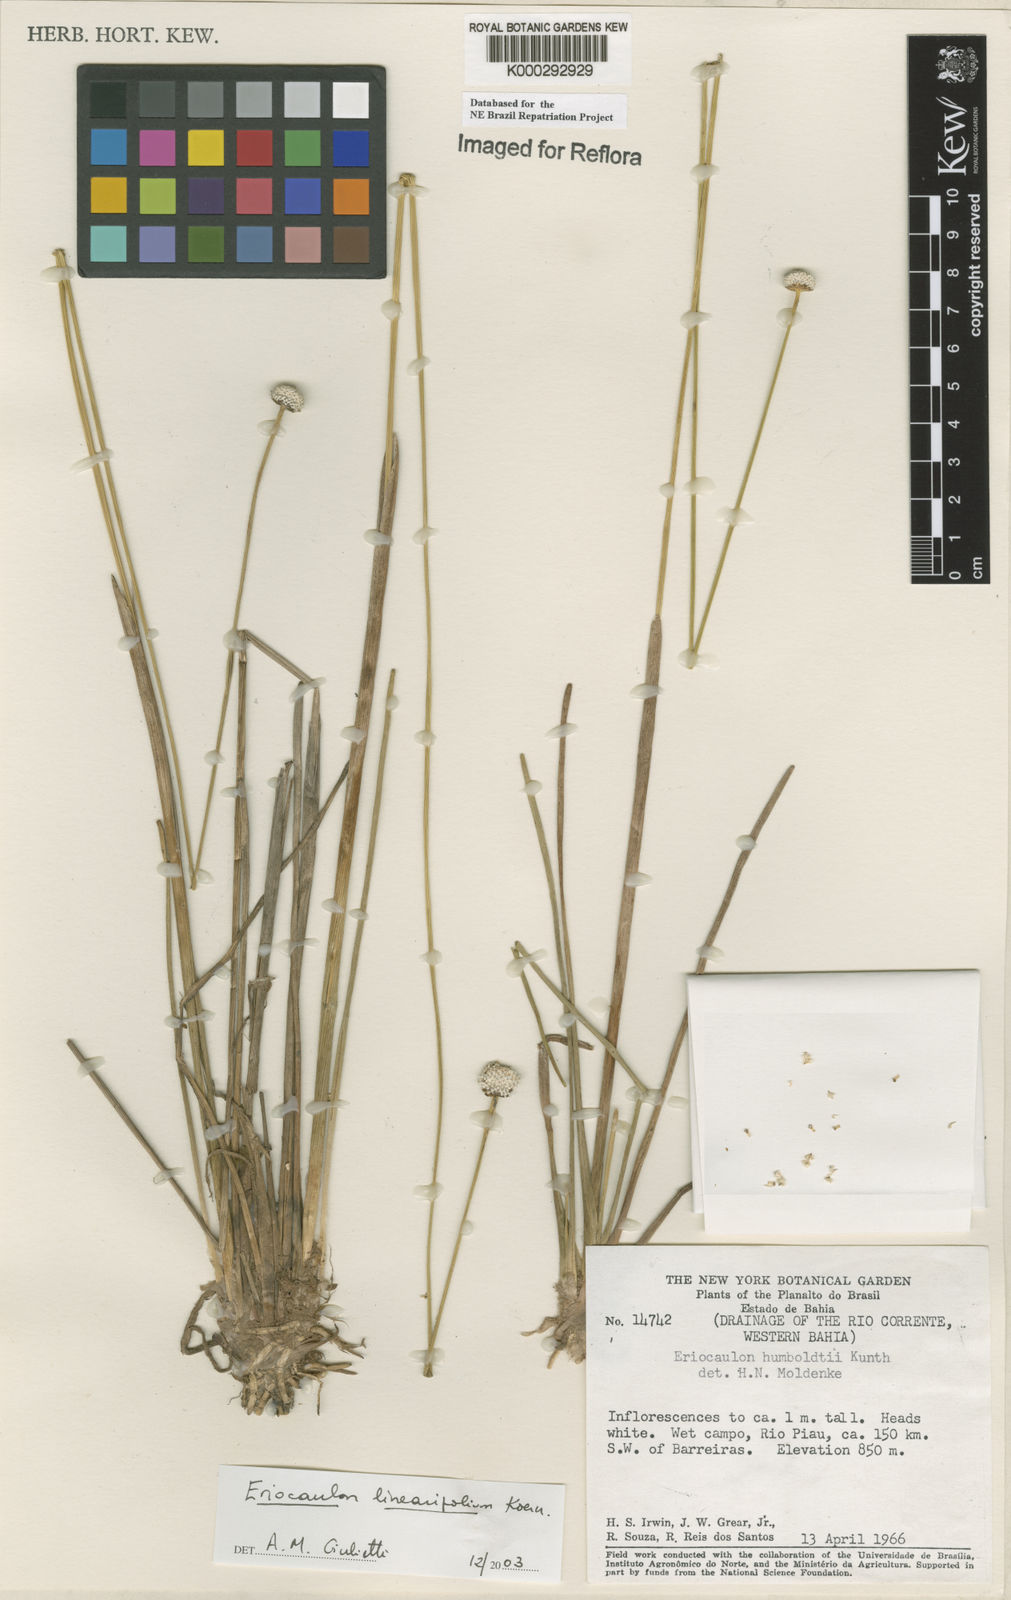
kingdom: Plantae
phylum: Tracheophyta
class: Liliopsida
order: Poales
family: Eriocaulaceae
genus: Eriocaulon
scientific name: Eriocaulon
